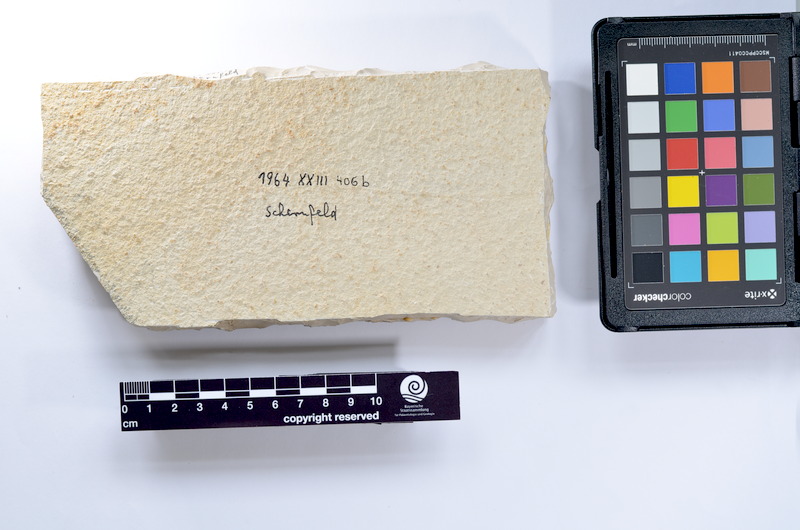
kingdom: Animalia
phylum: Chordata
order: Elopiformes
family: Anaethalionidae
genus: Anaethalion
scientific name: Anaethalion knorri
